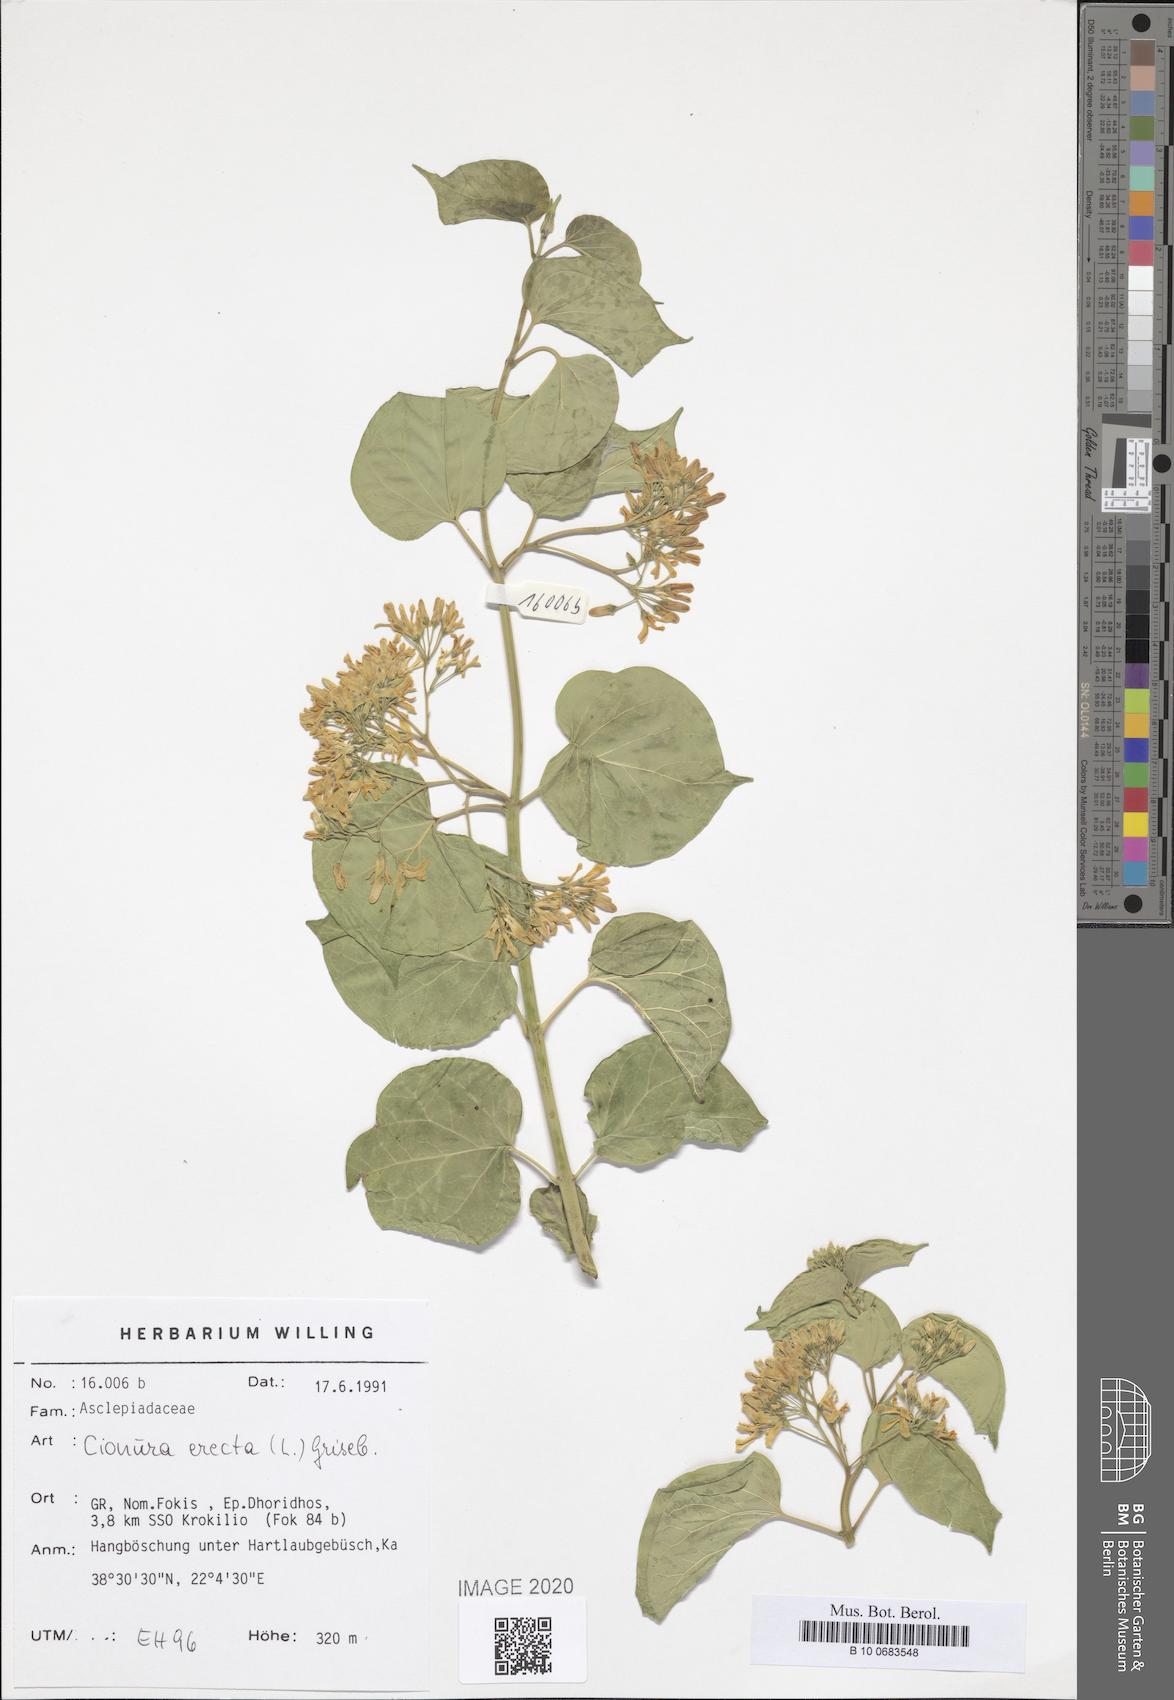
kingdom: Plantae
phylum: Tracheophyta
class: Magnoliopsida
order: Gentianales
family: Apocynaceae
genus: Cionura
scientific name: Cionura erecta
